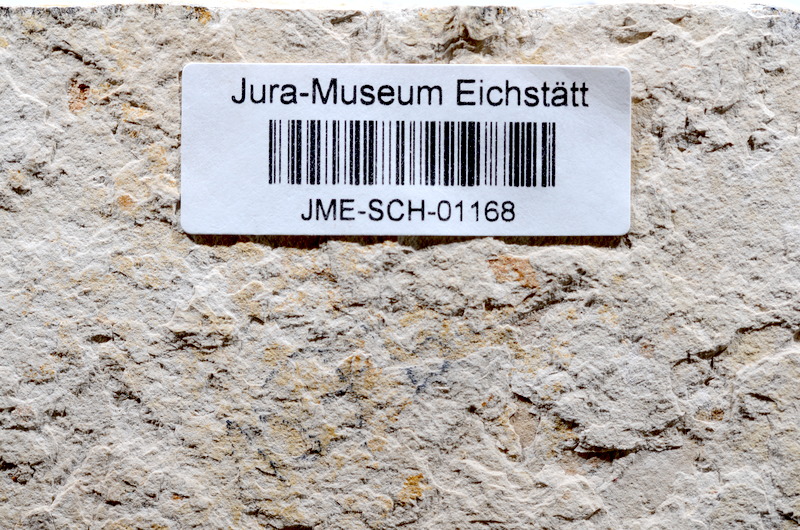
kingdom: Animalia
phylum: Chordata
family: Ascalaboidae
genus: Tharsis
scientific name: Tharsis dubius
